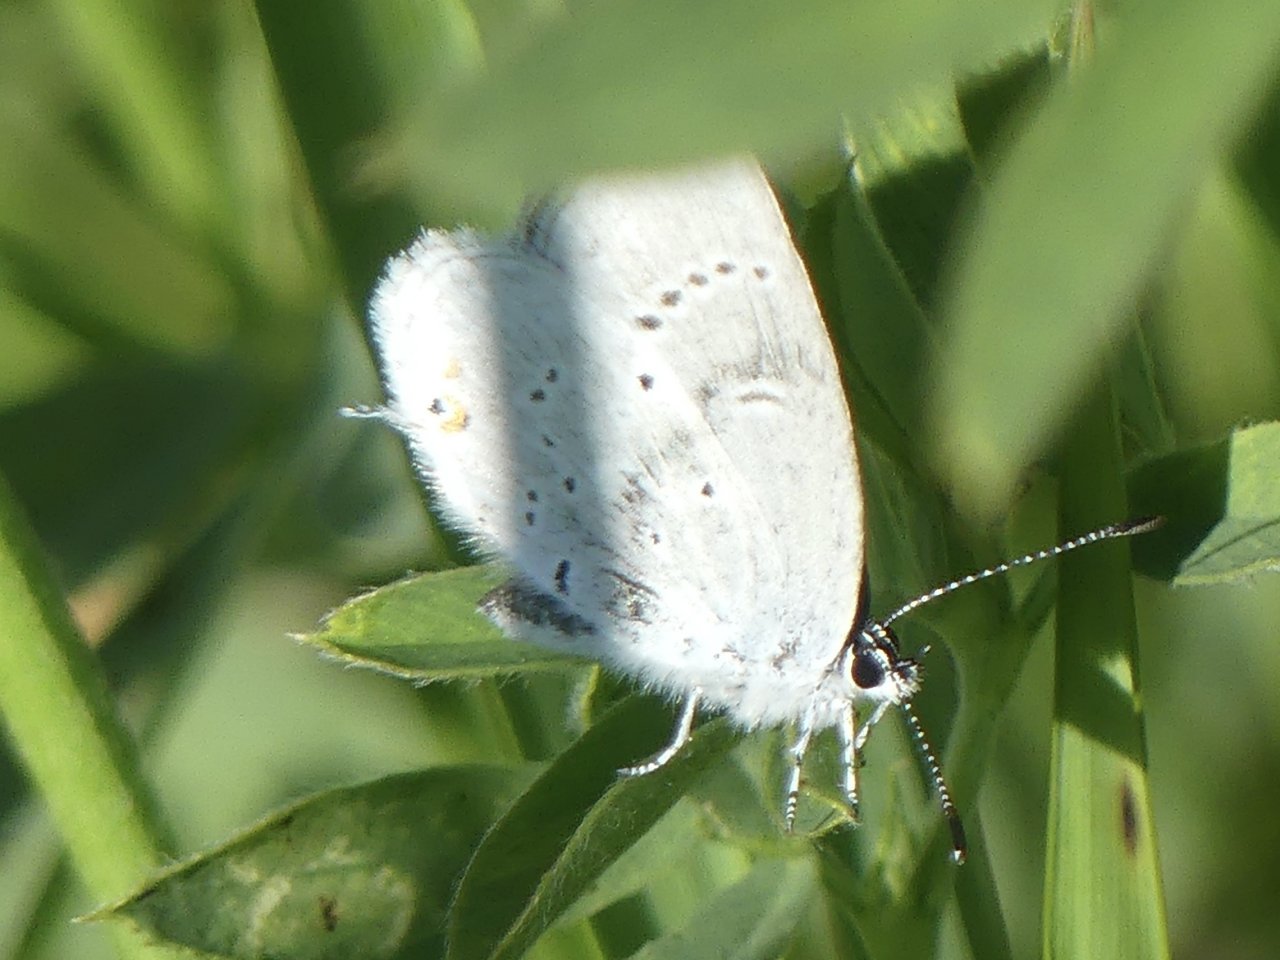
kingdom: Animalia
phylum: Arthropoda
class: Insecta
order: Lepidoptera
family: Lycaenidae
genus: Elkalyce
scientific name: Elkalyce amyntula
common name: Western Tailed-Blue
